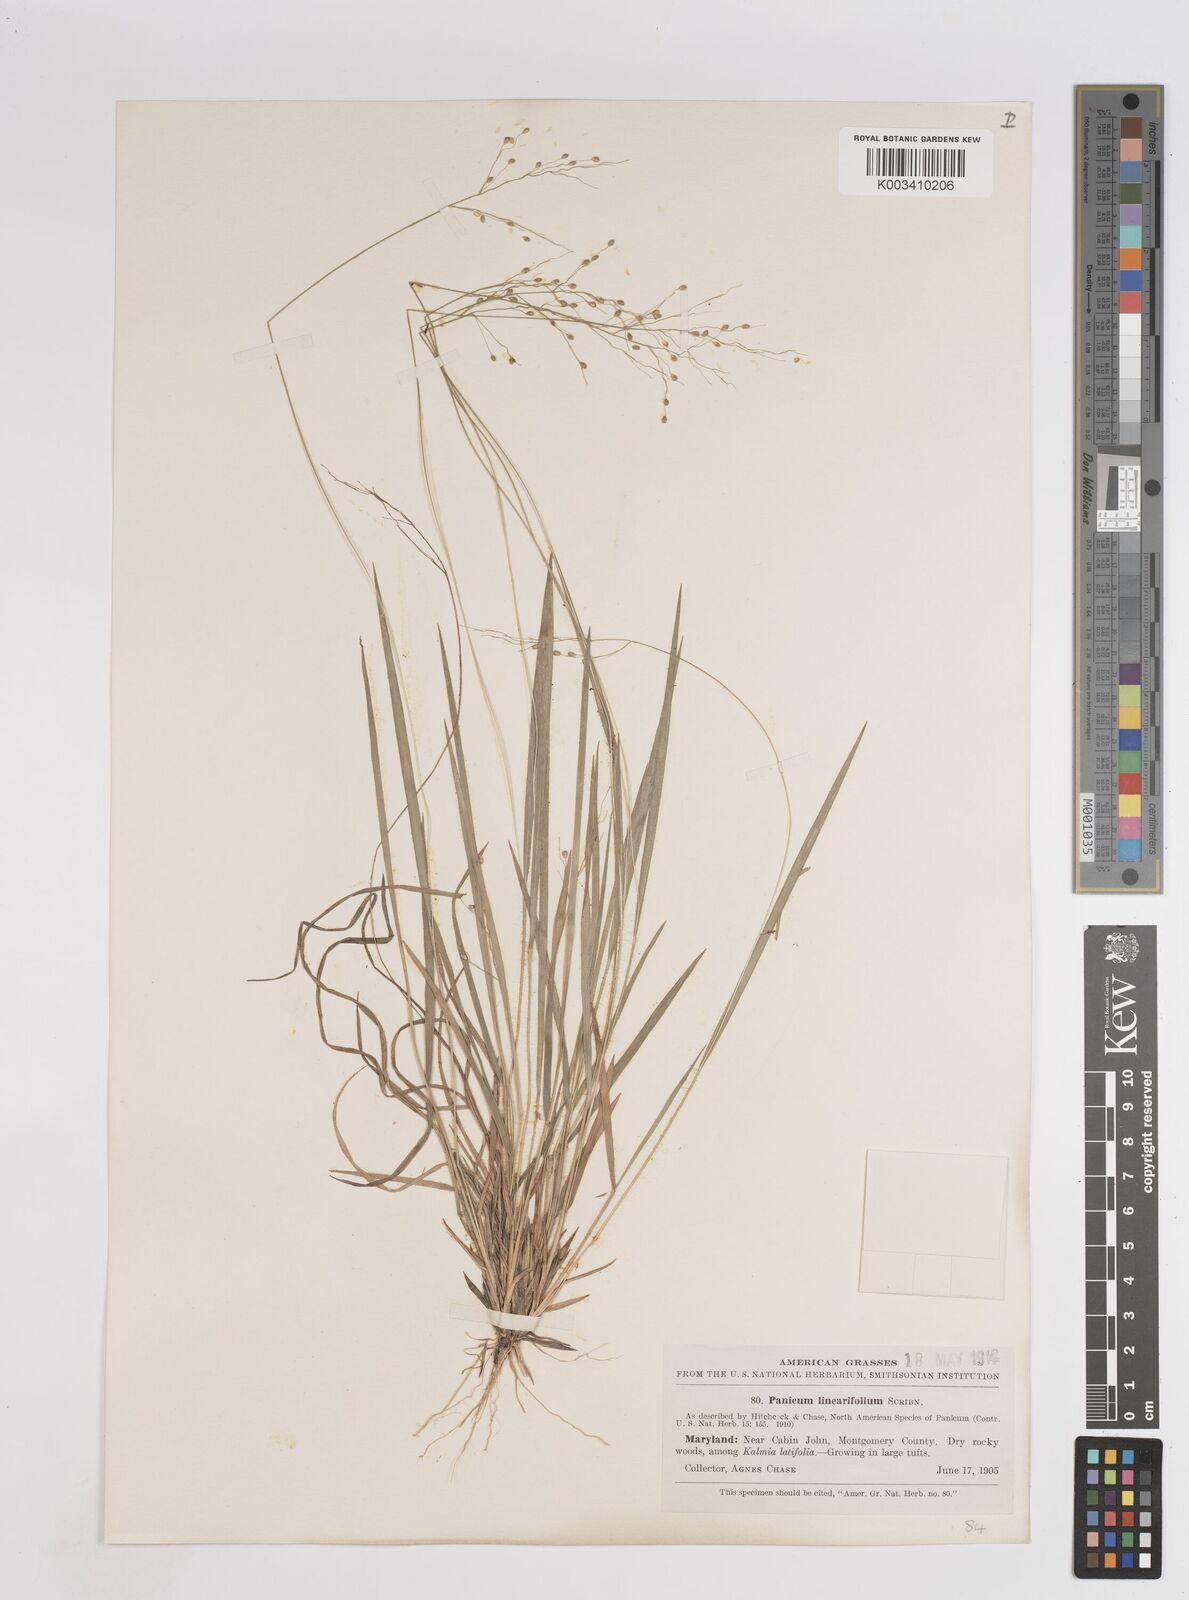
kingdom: Plantae
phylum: Tracheophyta
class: Liliopsida
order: Poales
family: Poaceae
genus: Dichanthelium
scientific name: Dichanthelium linearifolium
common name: Linear-leaved panicgrass
